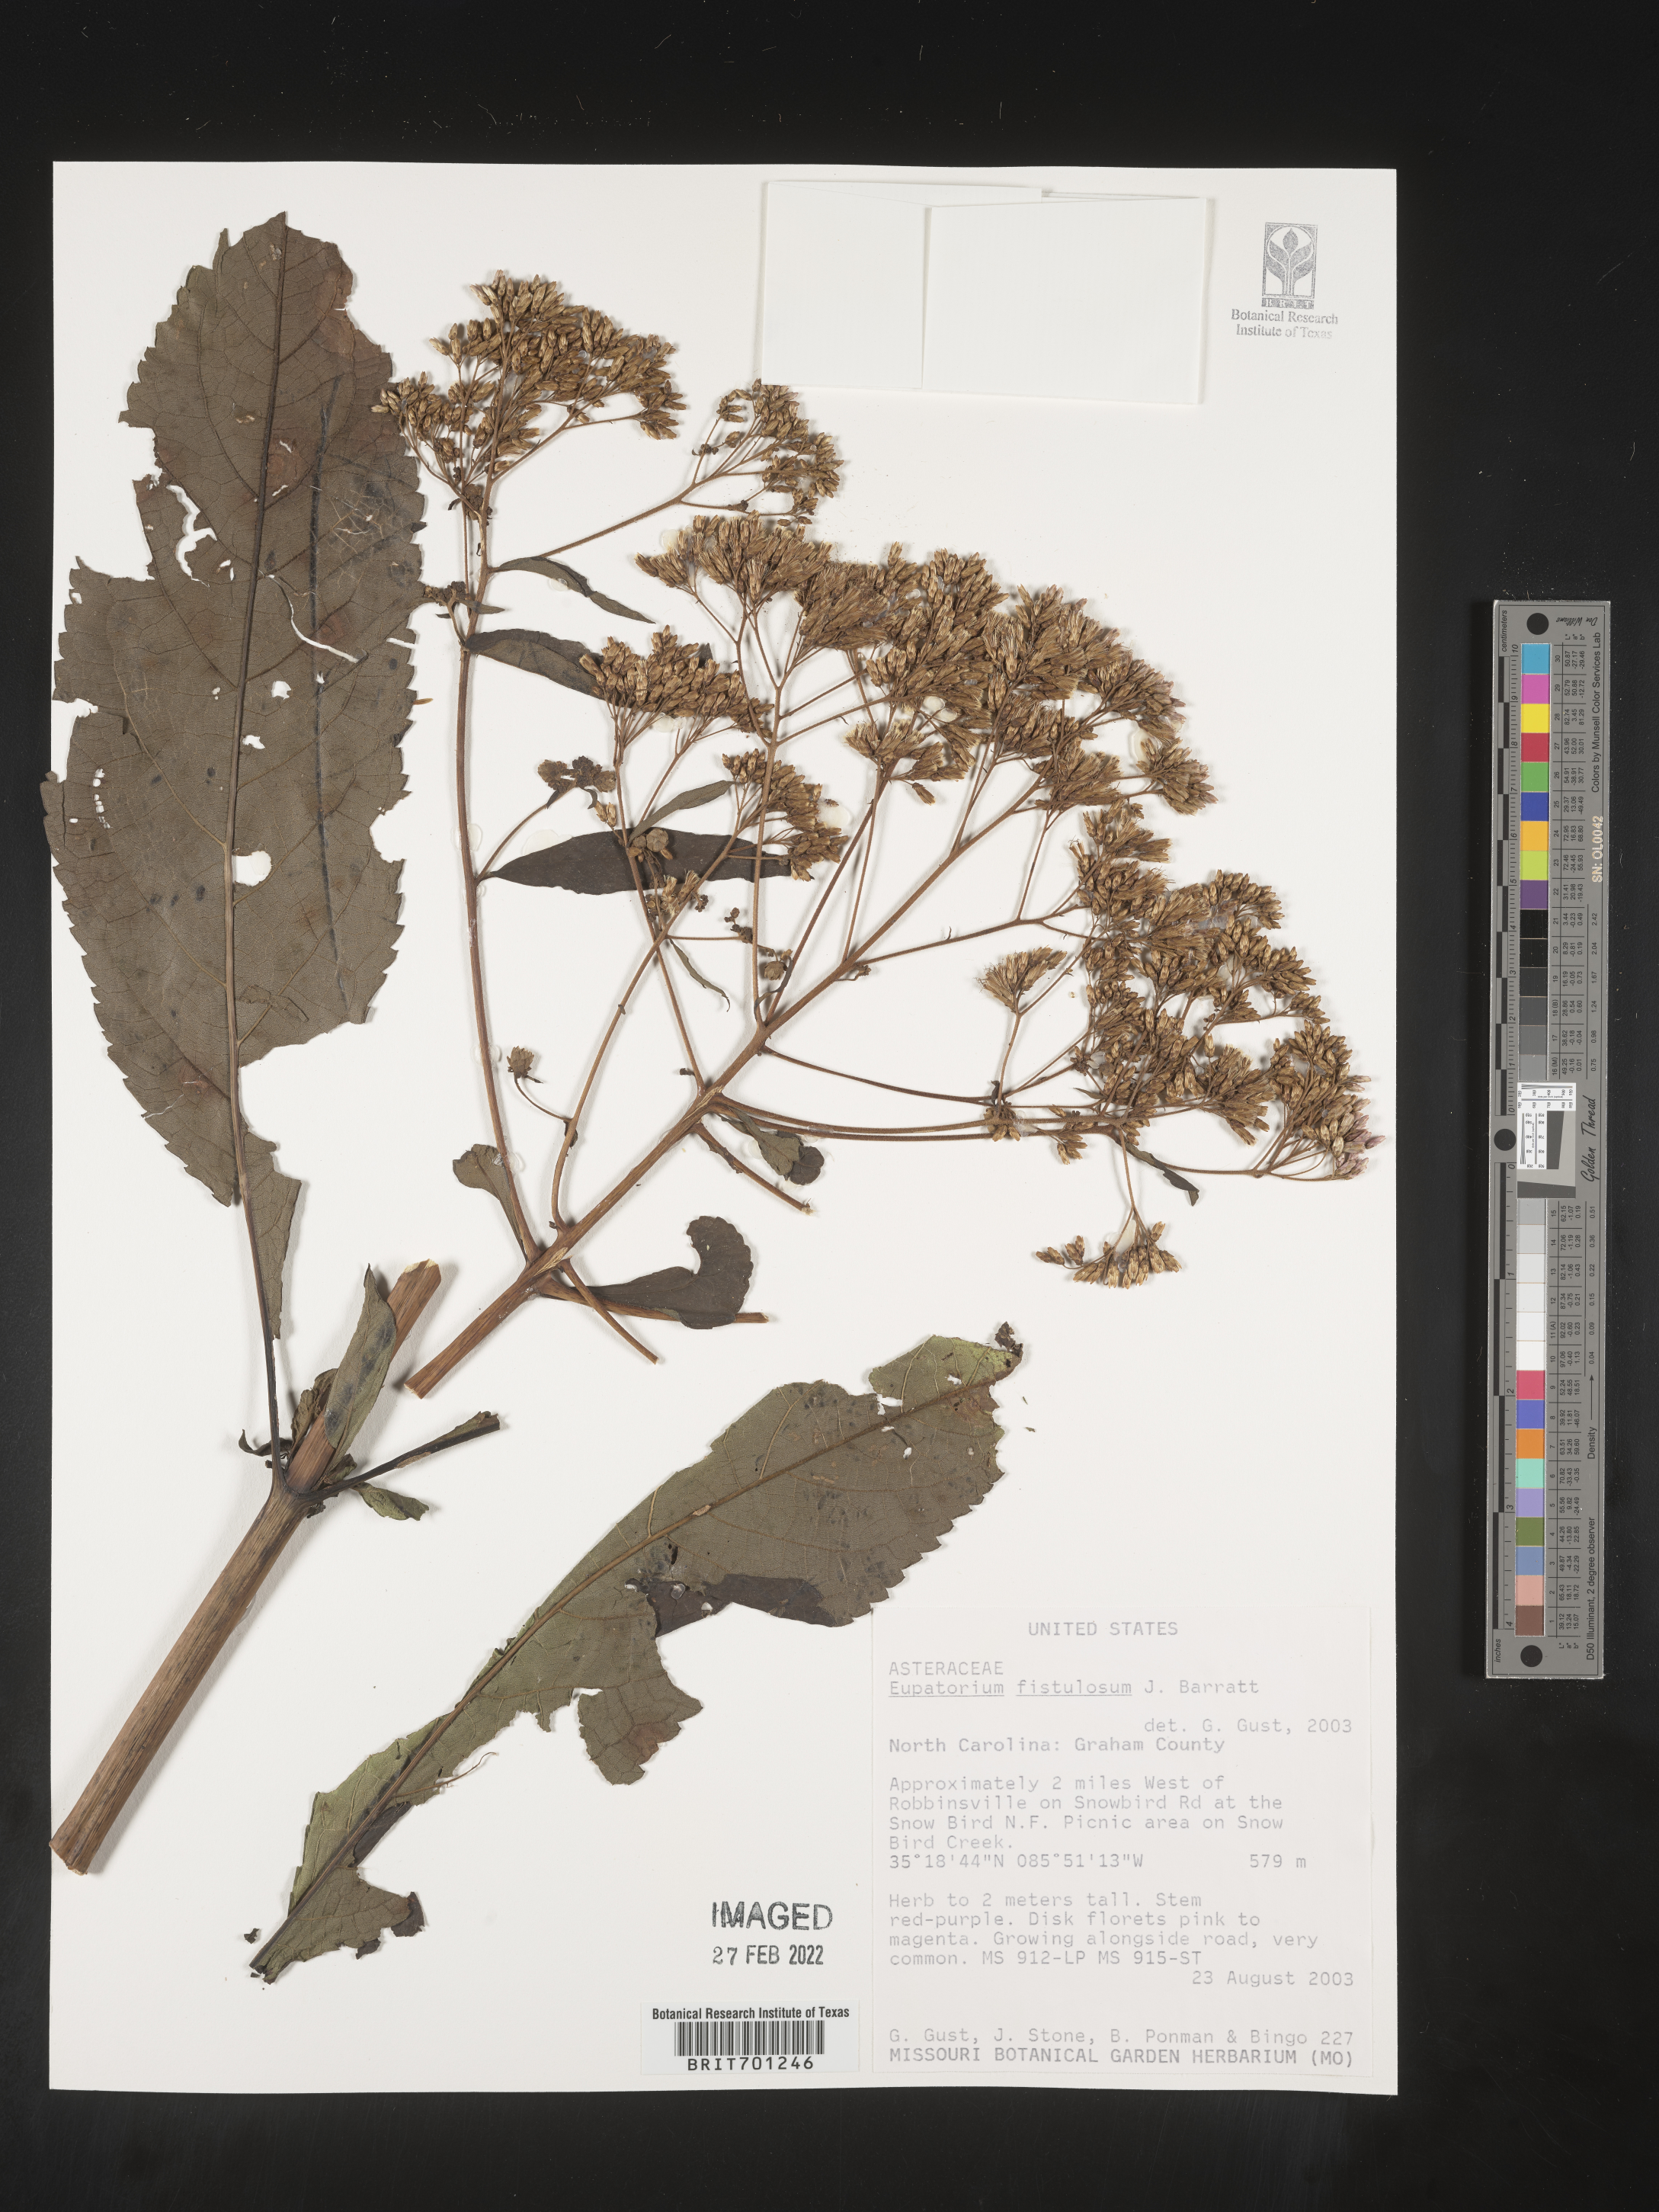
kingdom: Plantae
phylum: Tracheophyta
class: Magnoliopsida
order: Asterales
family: Asteraceae
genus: Eutrochium
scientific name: Eutrochium fistulosum
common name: Trumpetweed
